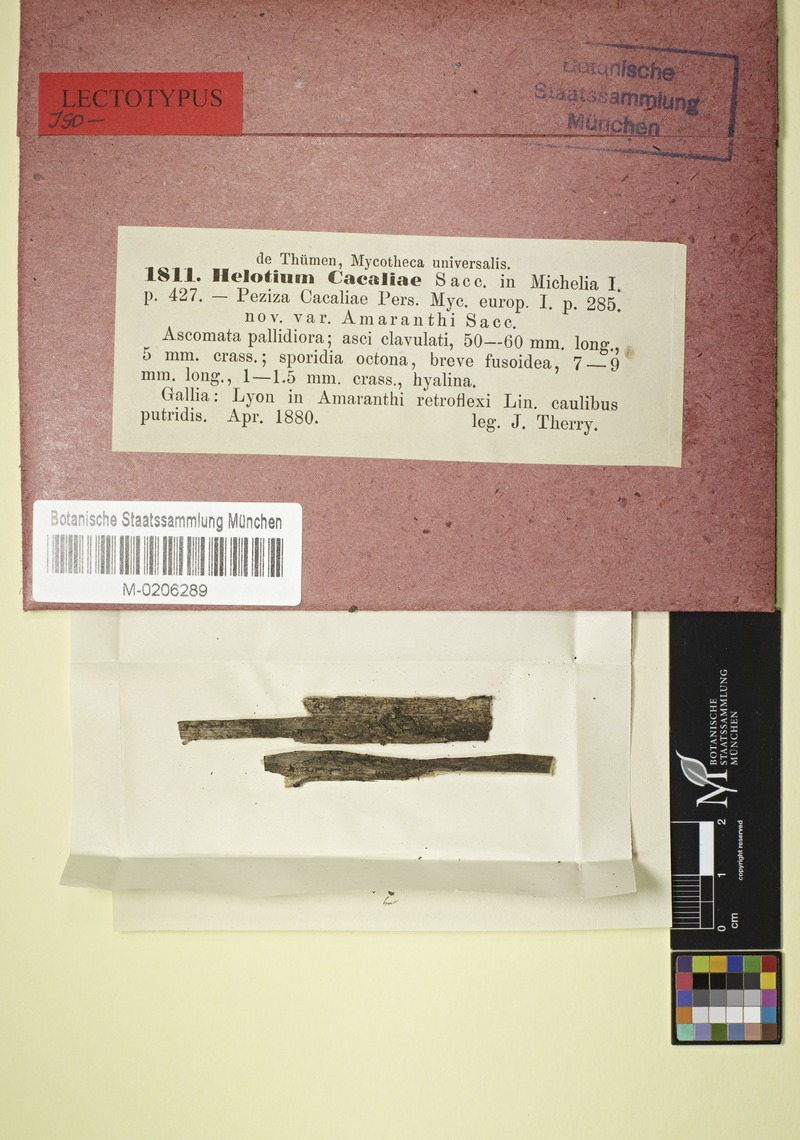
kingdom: Fungi
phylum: Ascomycota
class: Leotiomycetes
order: Helotiales
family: Helotiaceae
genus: Cyathicula
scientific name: Cyathicula cyathoidea
